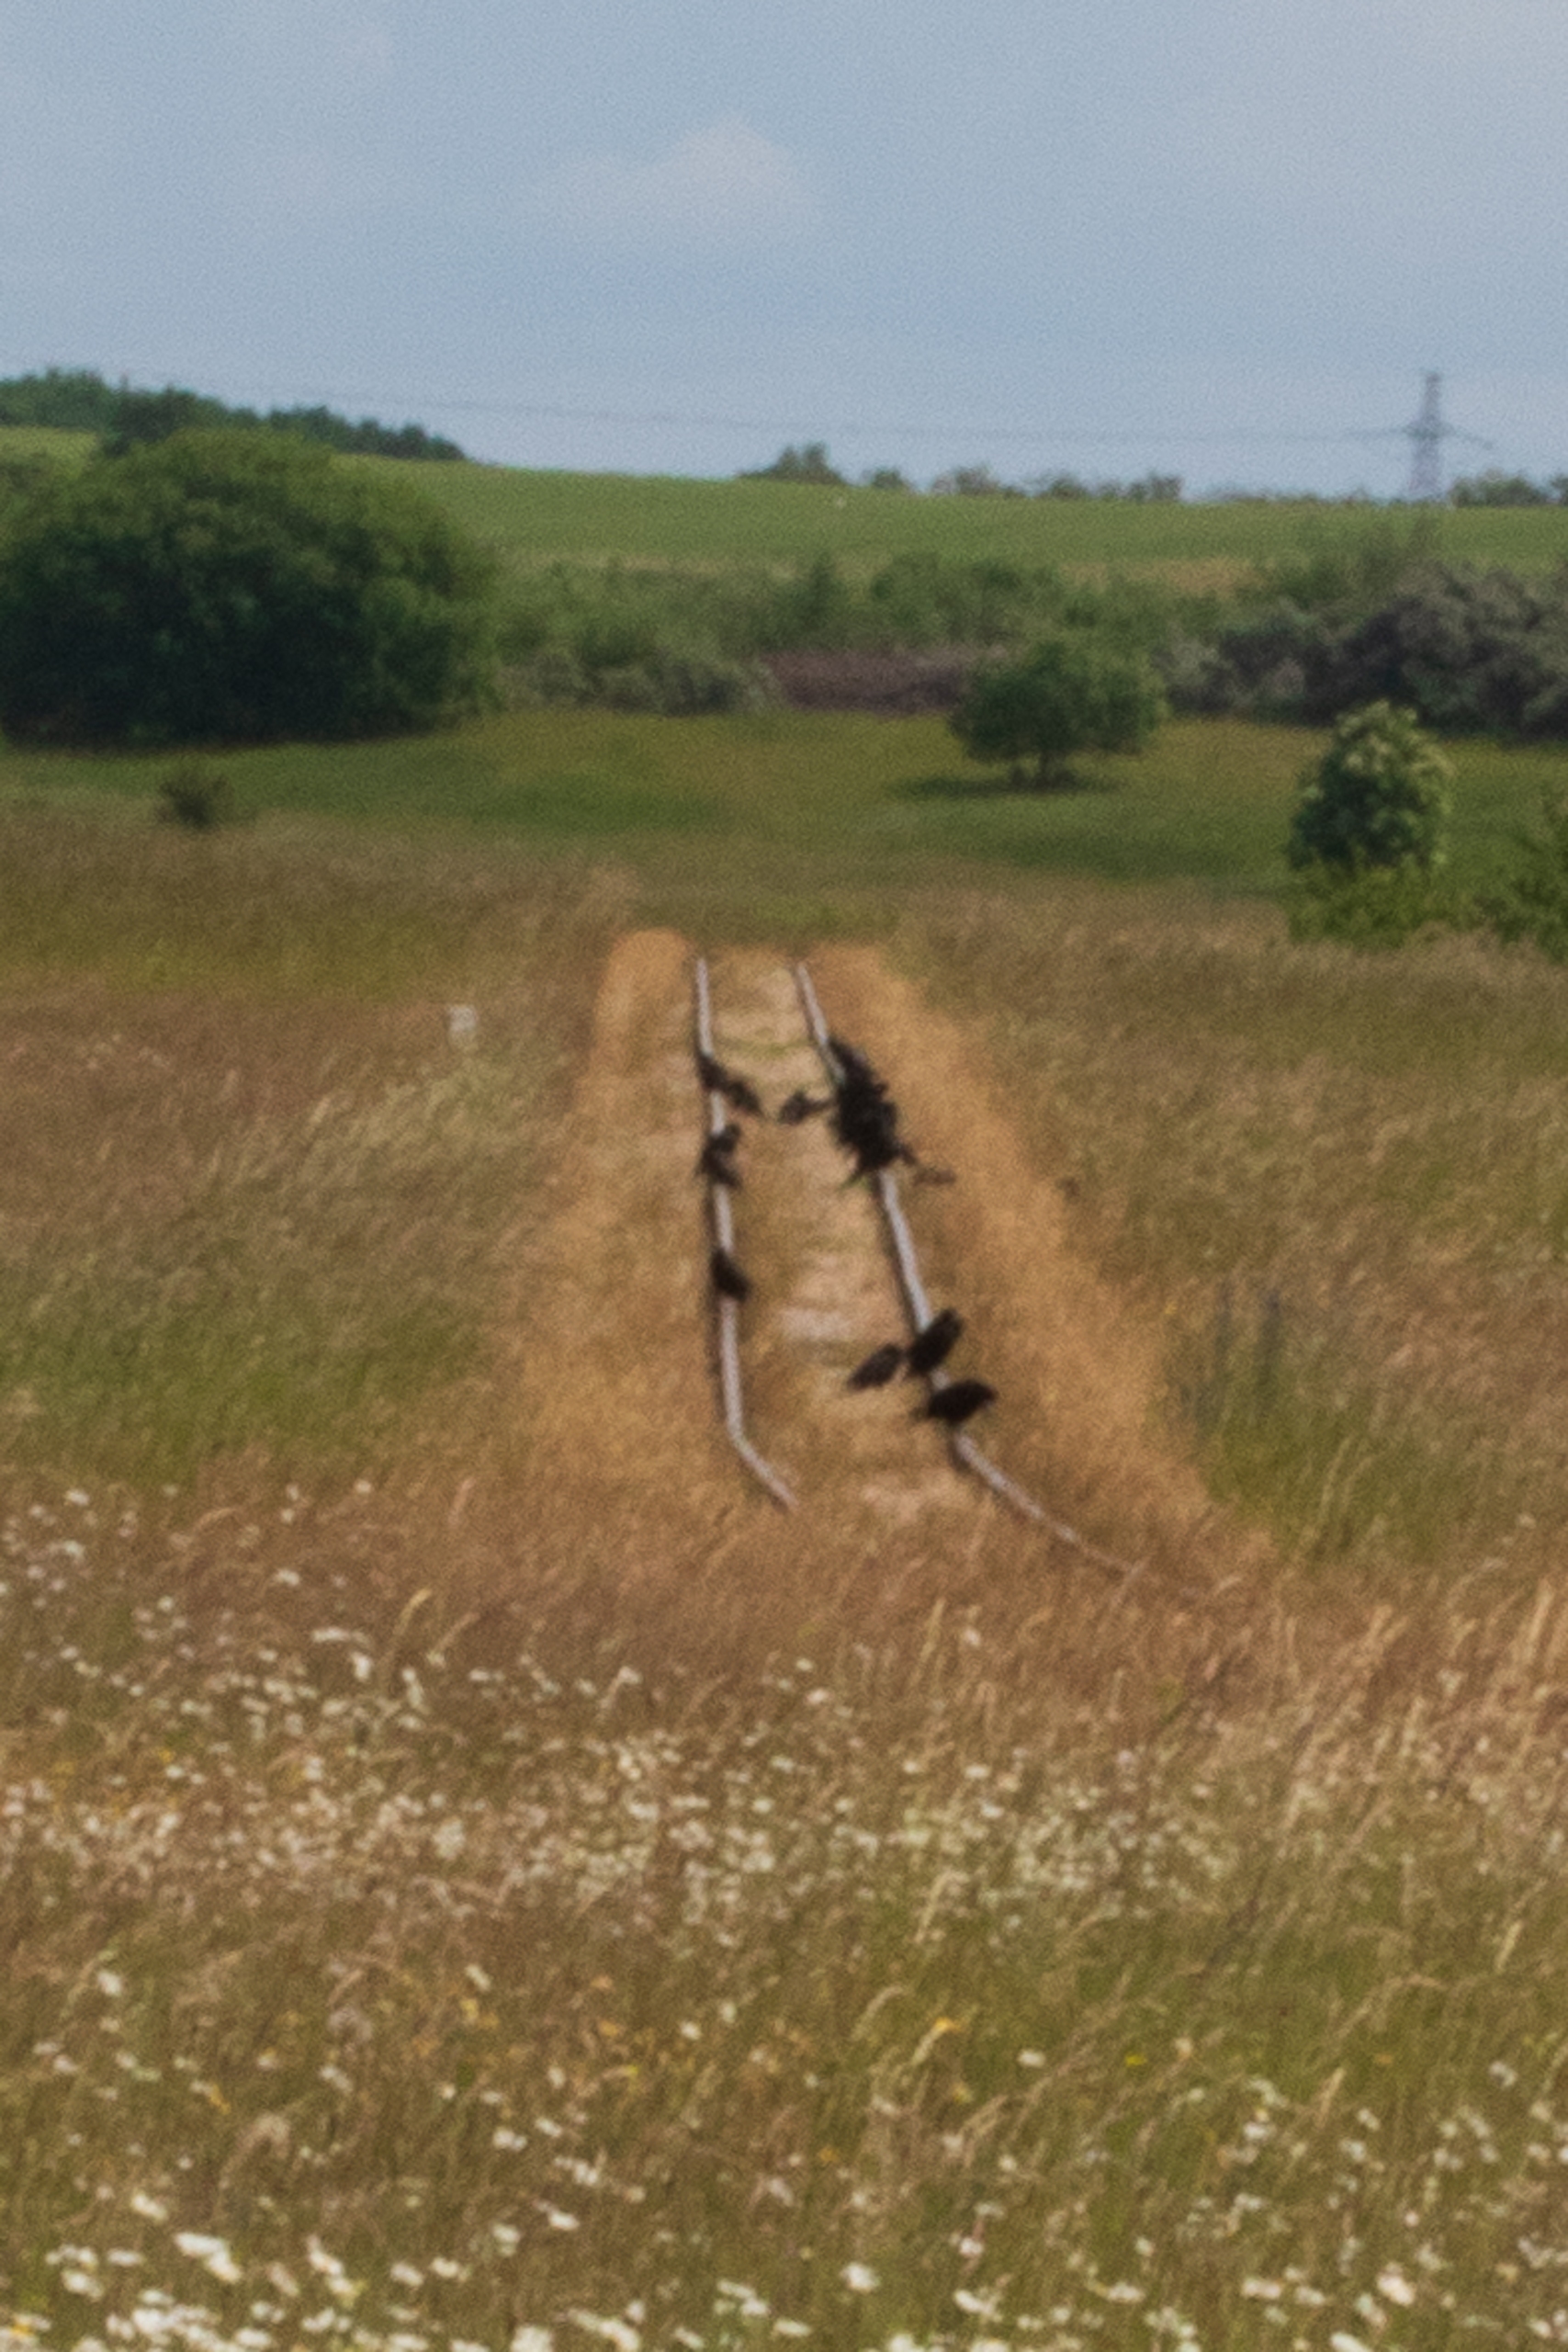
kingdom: Animalia
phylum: Chordata
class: Aves
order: Passeriformes
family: Corvidae
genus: Corvus
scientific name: Corvus frugilegus
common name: Råge
